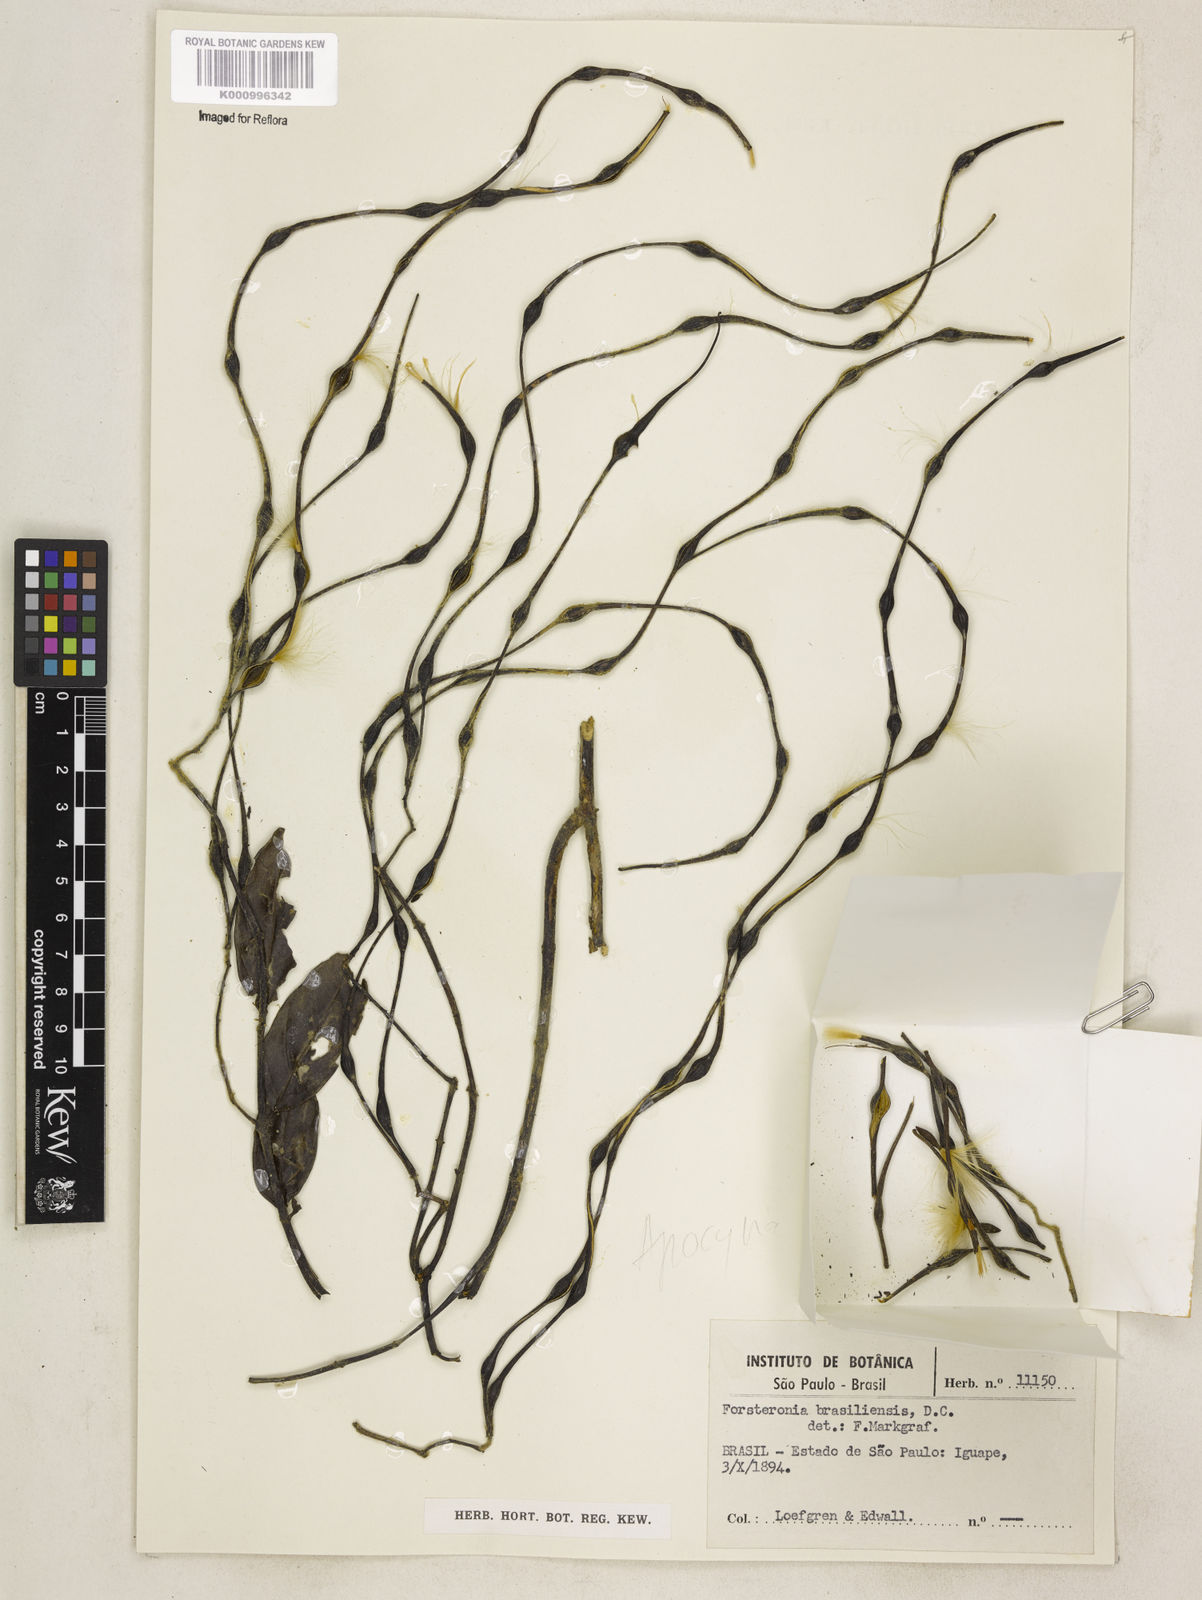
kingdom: Plantae
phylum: Tracheophyta
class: Magnoliopsida
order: Gentianales
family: Apocynaceae
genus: Forsteronia
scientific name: Forsteronia leptocarpa
